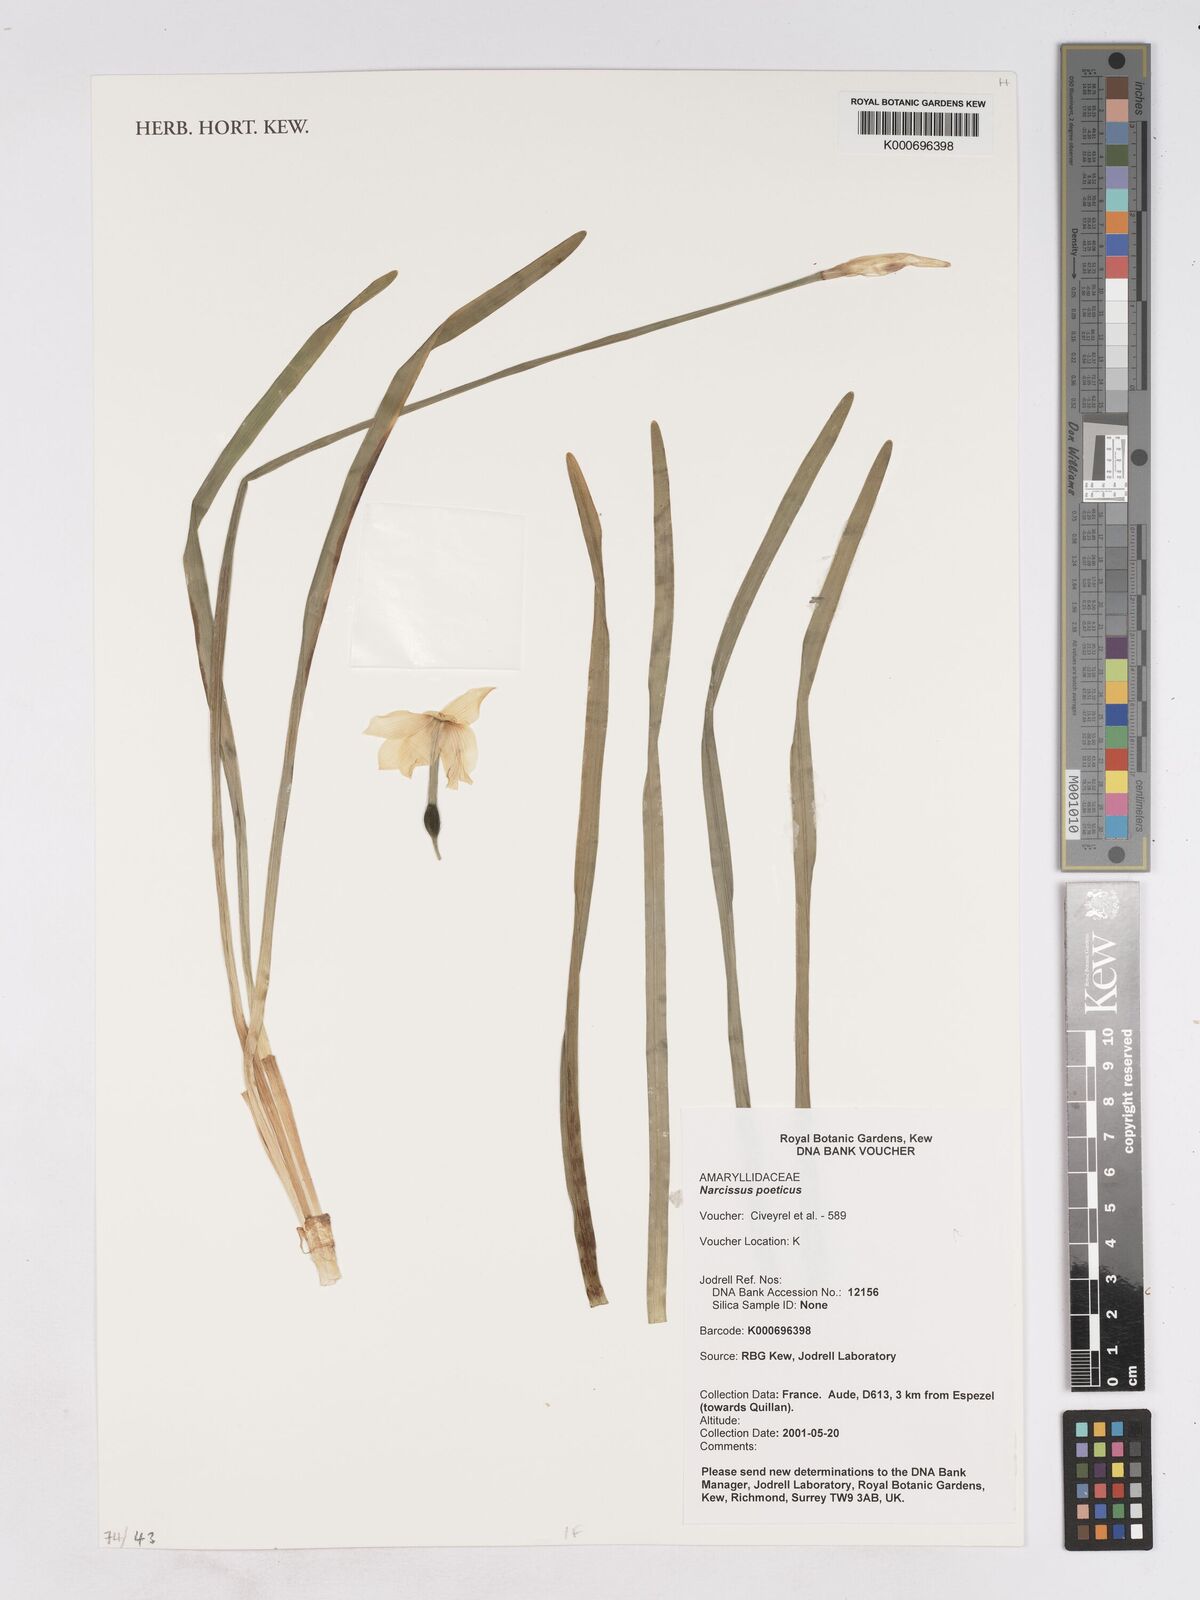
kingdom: Plantae
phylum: Tracheophyta
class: Liliopsida
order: Asparagales
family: Amaryllidaceae
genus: Narcissus
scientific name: Narcissus poeticus
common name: Pheasant's-eye daffodil
